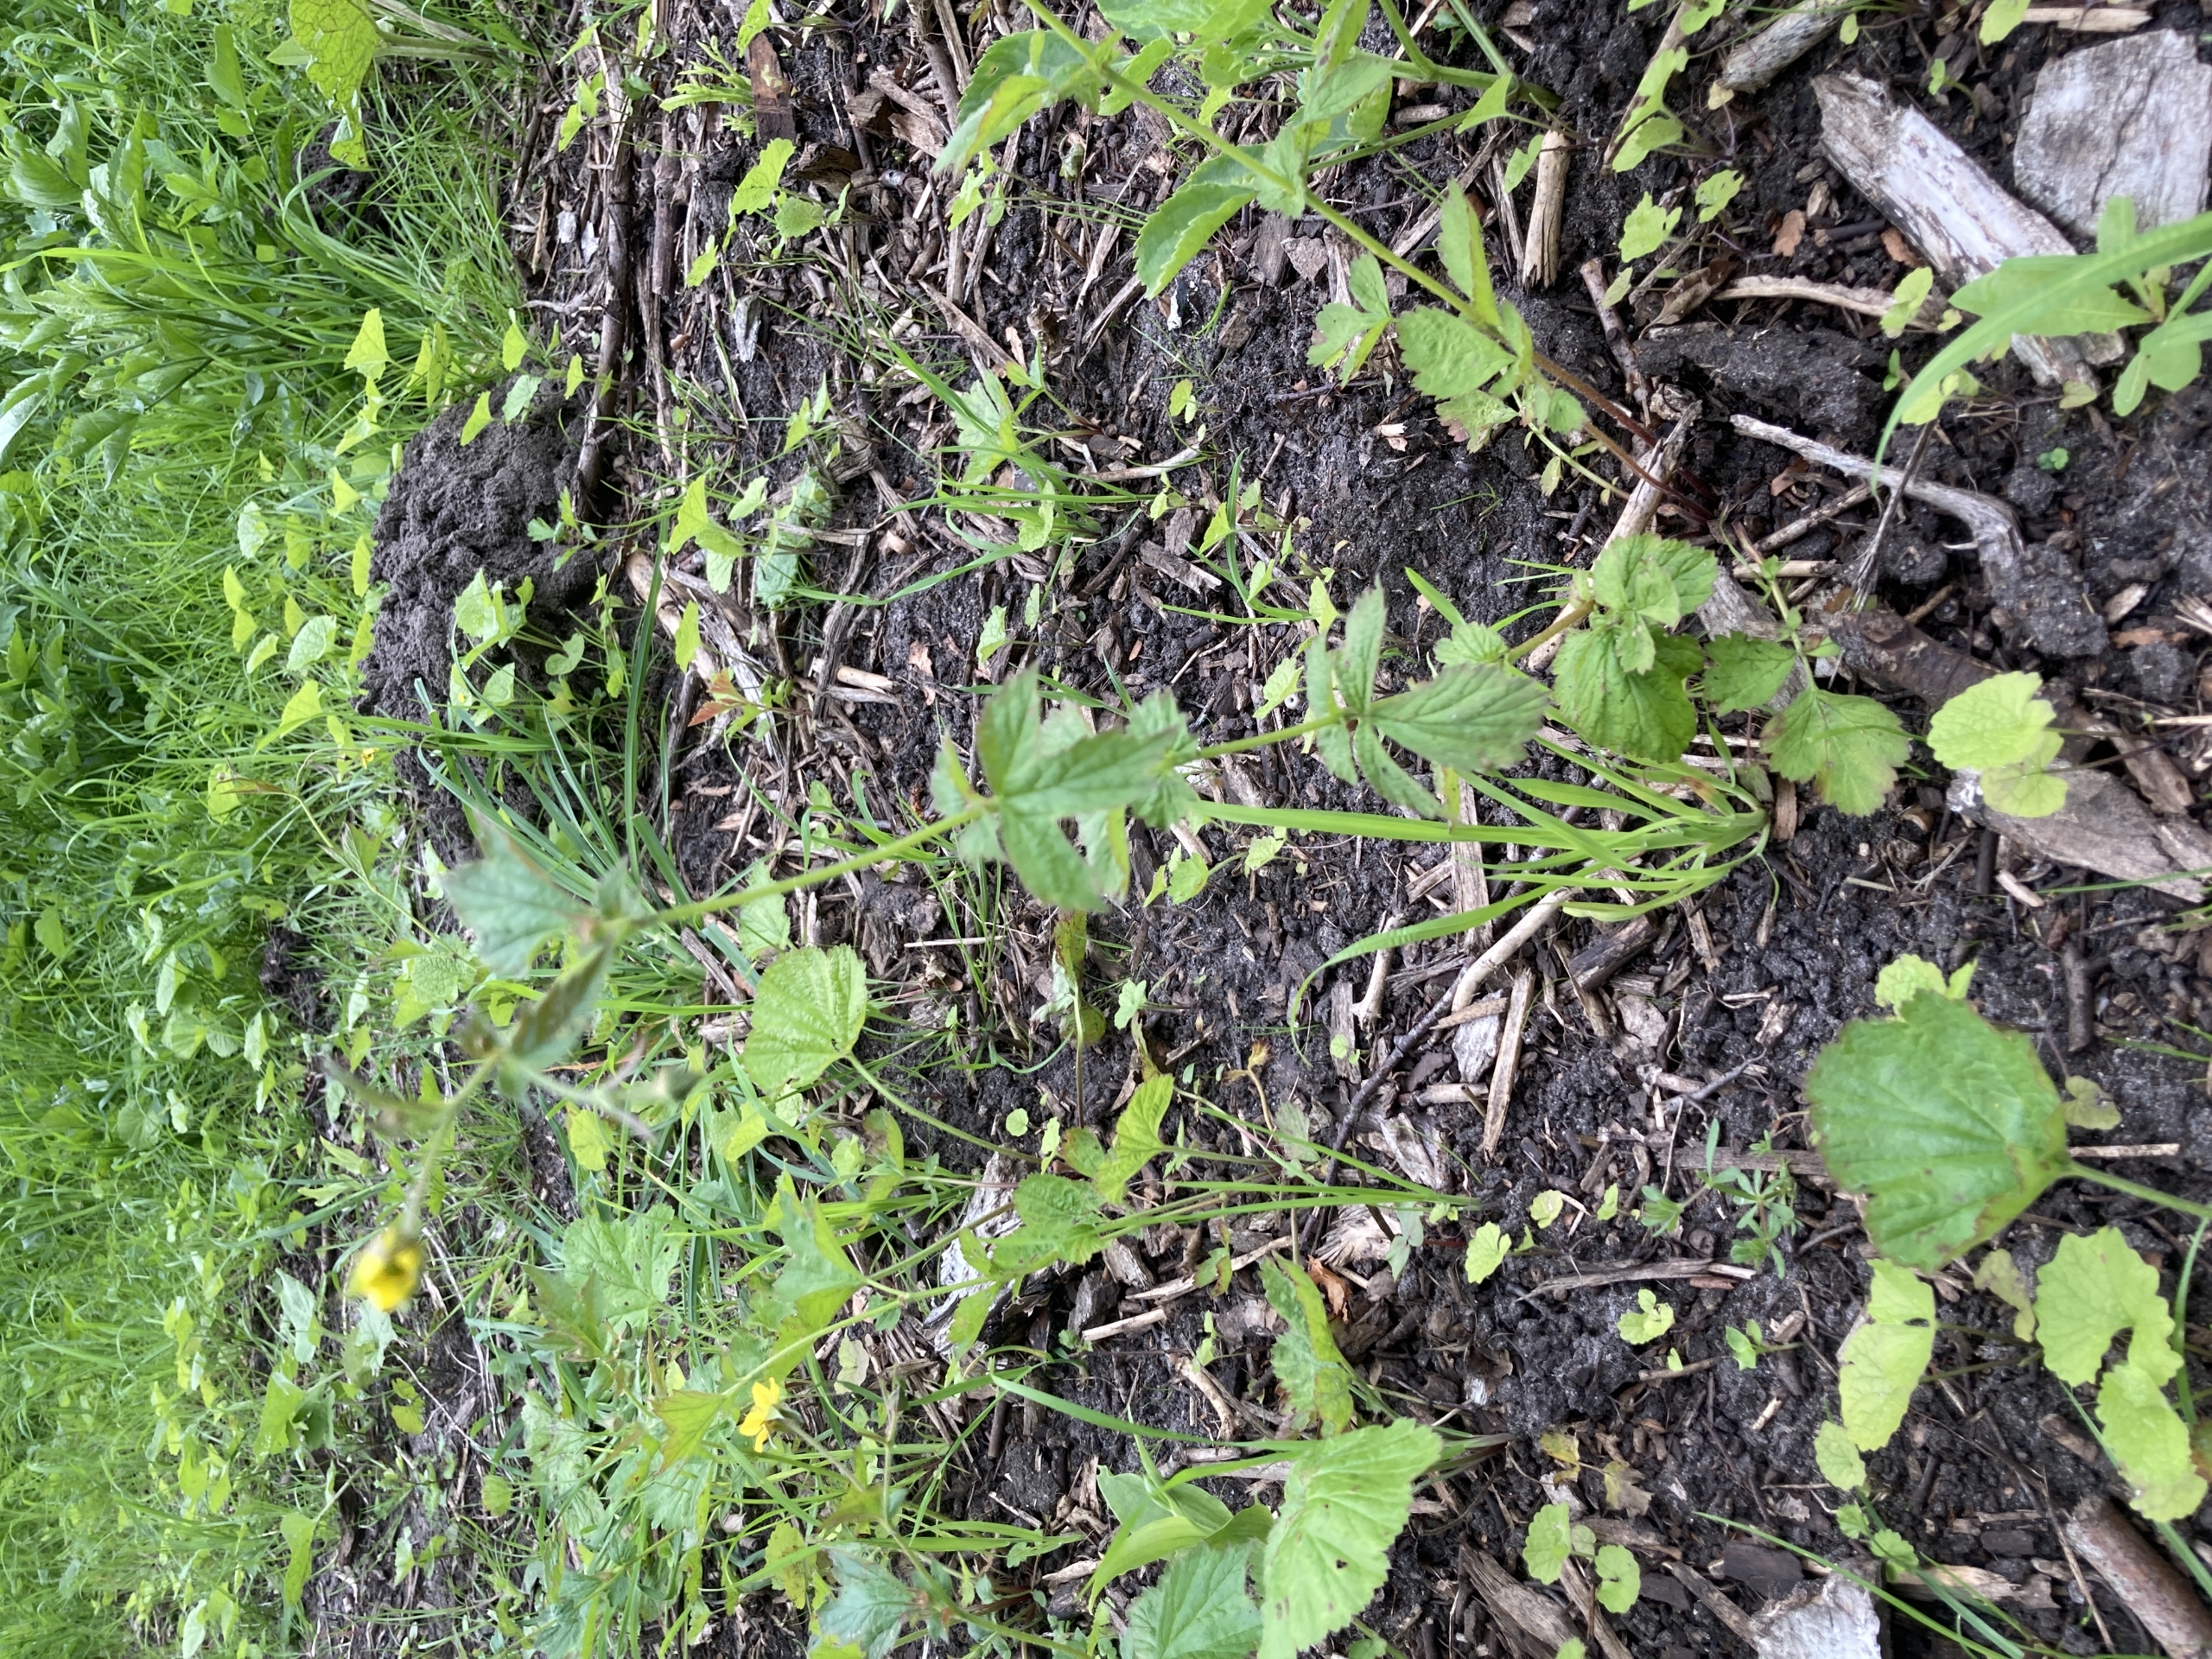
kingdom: Plantae
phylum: Tracheophyta
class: Magnoliopsida
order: Rosales
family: Rosaceae
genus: Geum
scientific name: Geum urbanum
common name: Feber-nellikerod
